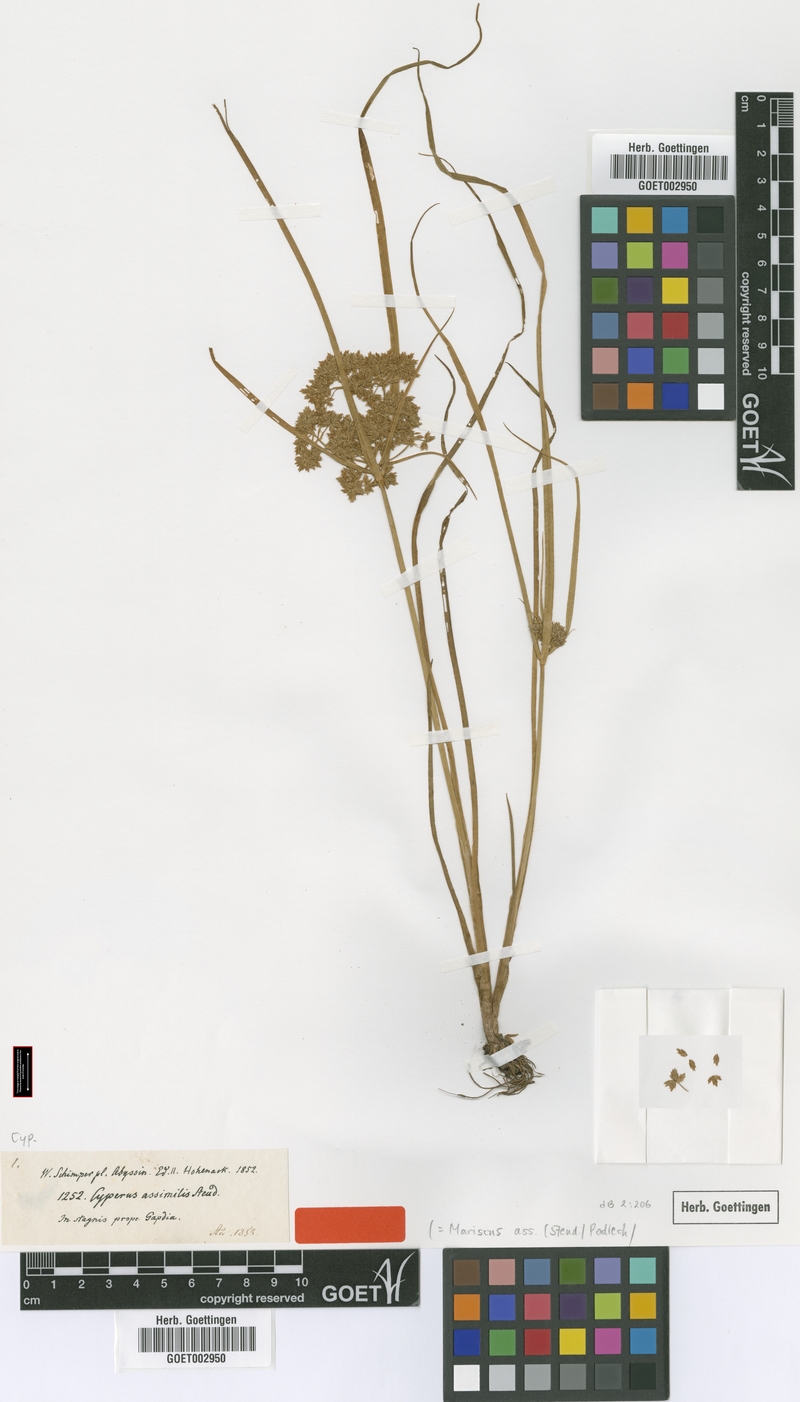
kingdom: Plantae
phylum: Tracheophyta
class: Liliopsida
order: Poales
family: Cyperaceae
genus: Cyperus
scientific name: Cyperus assimilis
